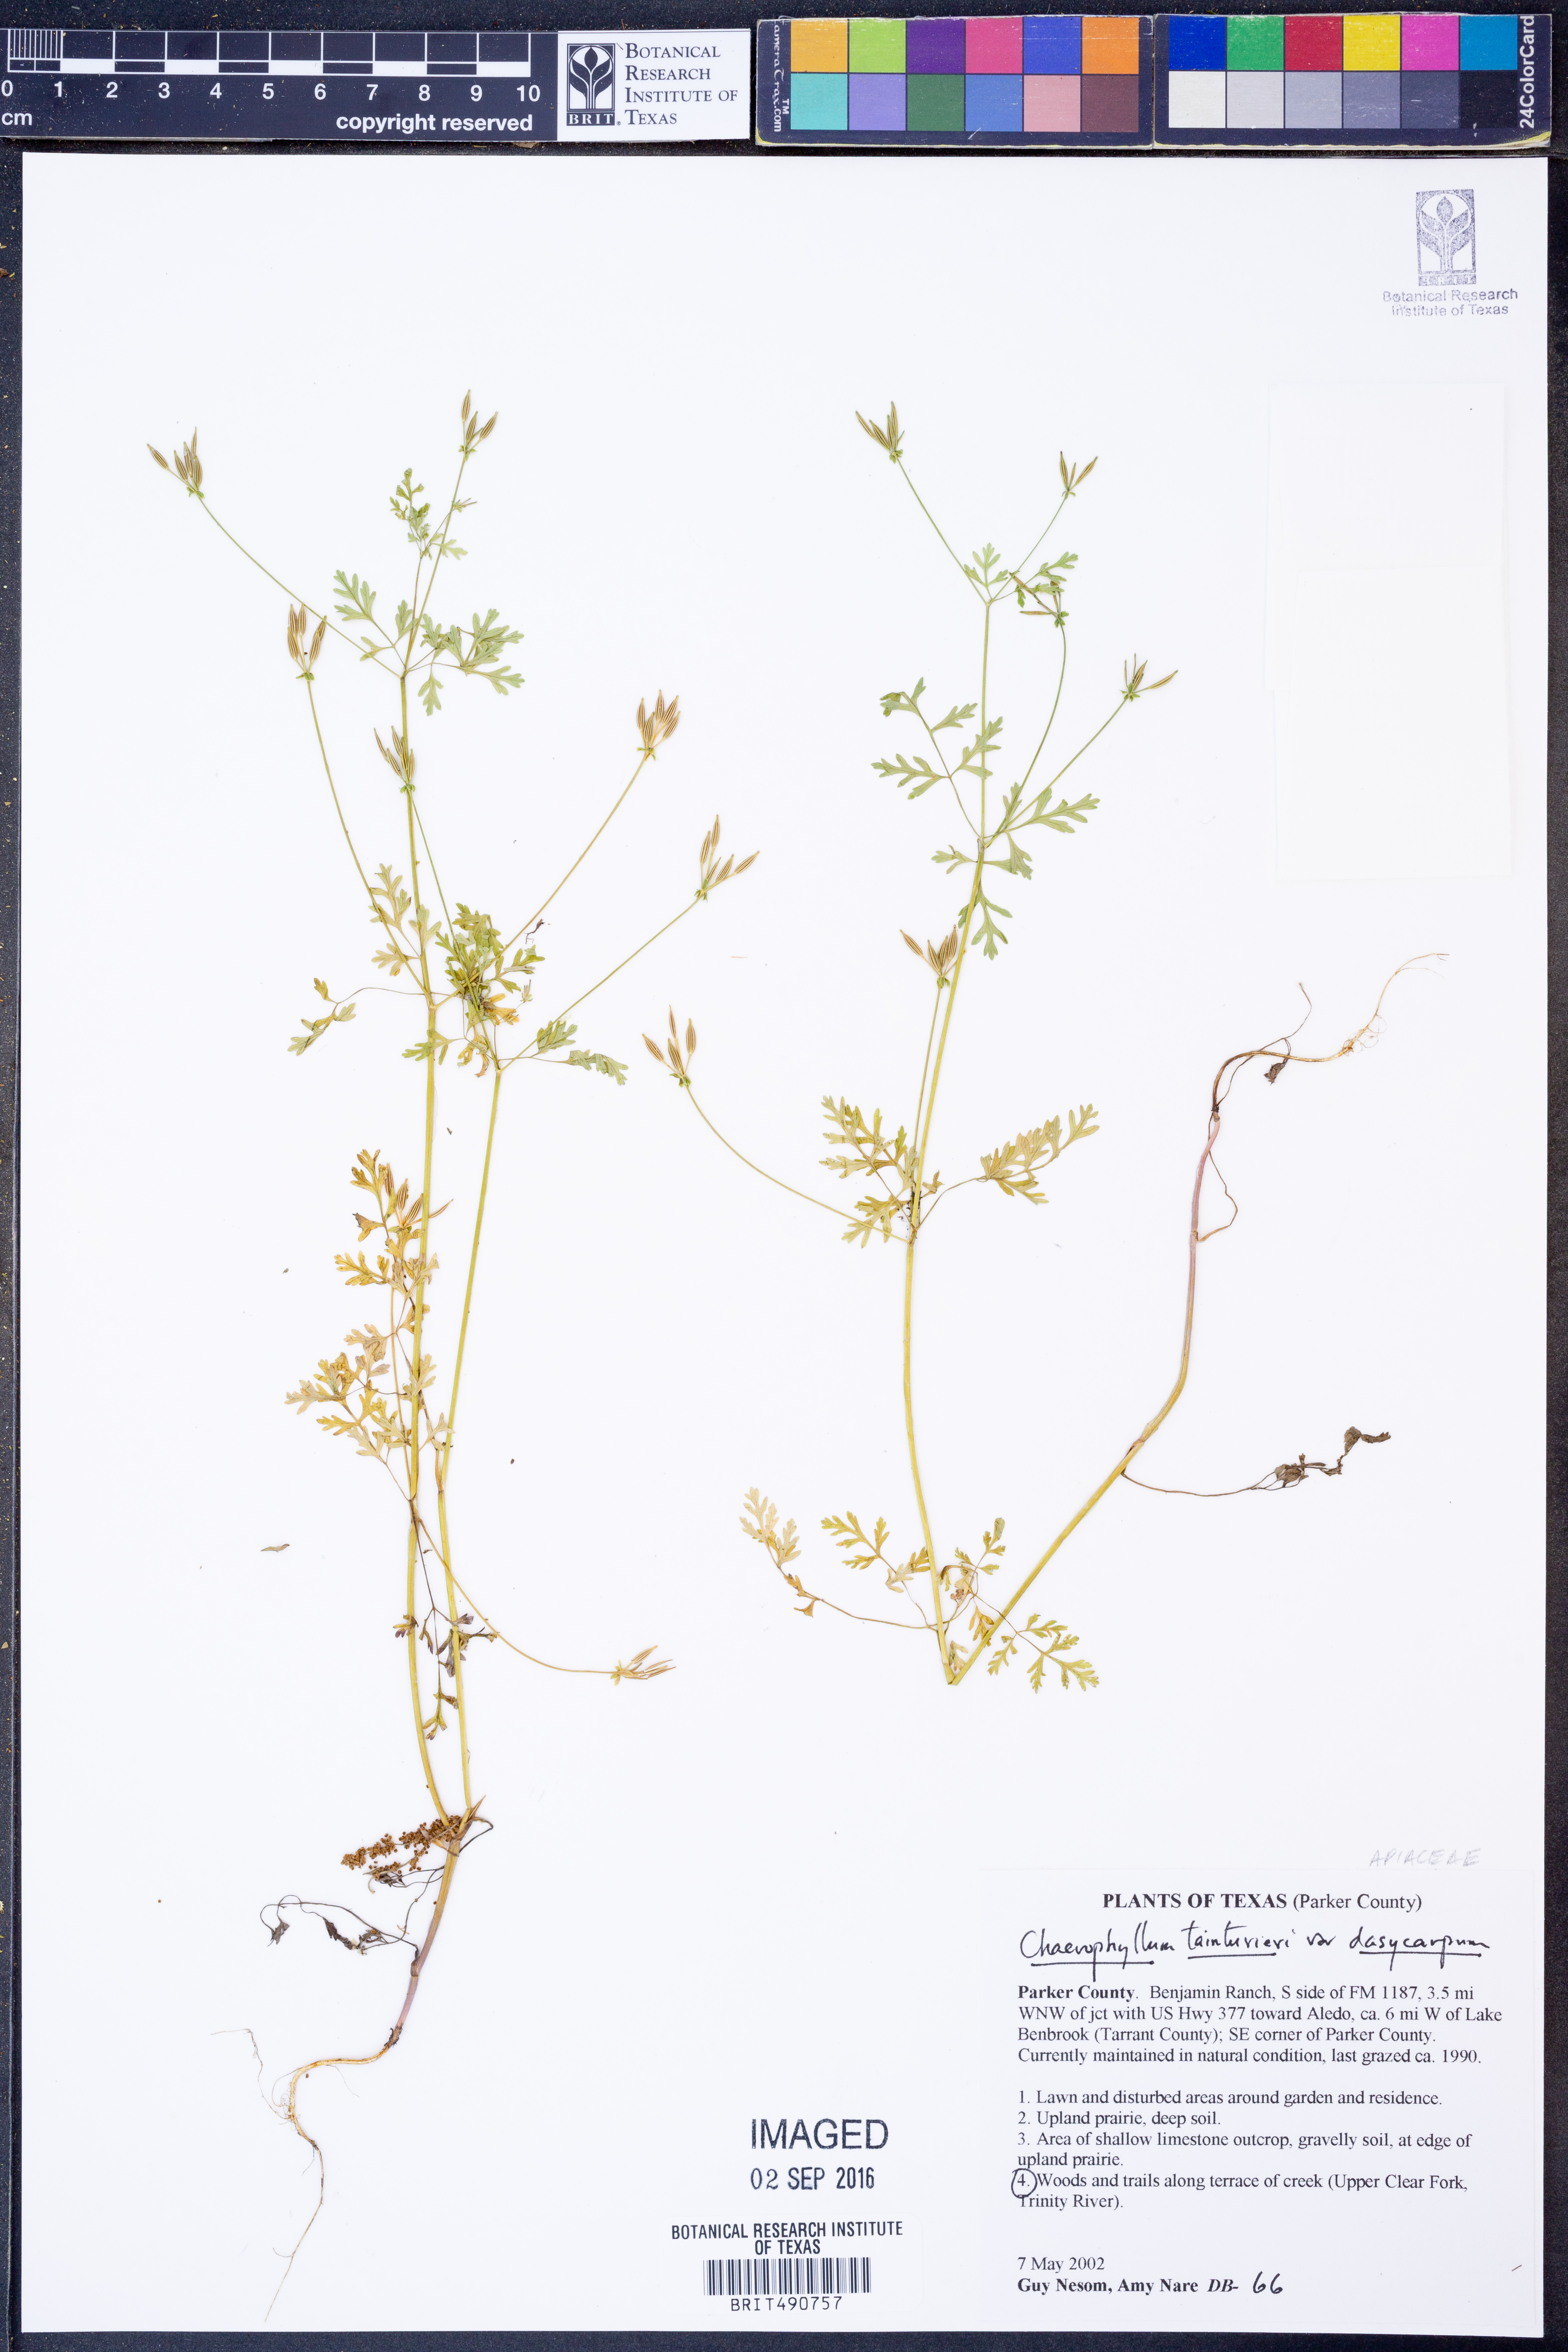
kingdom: Plantae
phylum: Tracheophyta
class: Magnoliopsida
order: Apiales
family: Apiaceae
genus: Chaerophyllum
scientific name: Chaerophyllum dasycarpum
